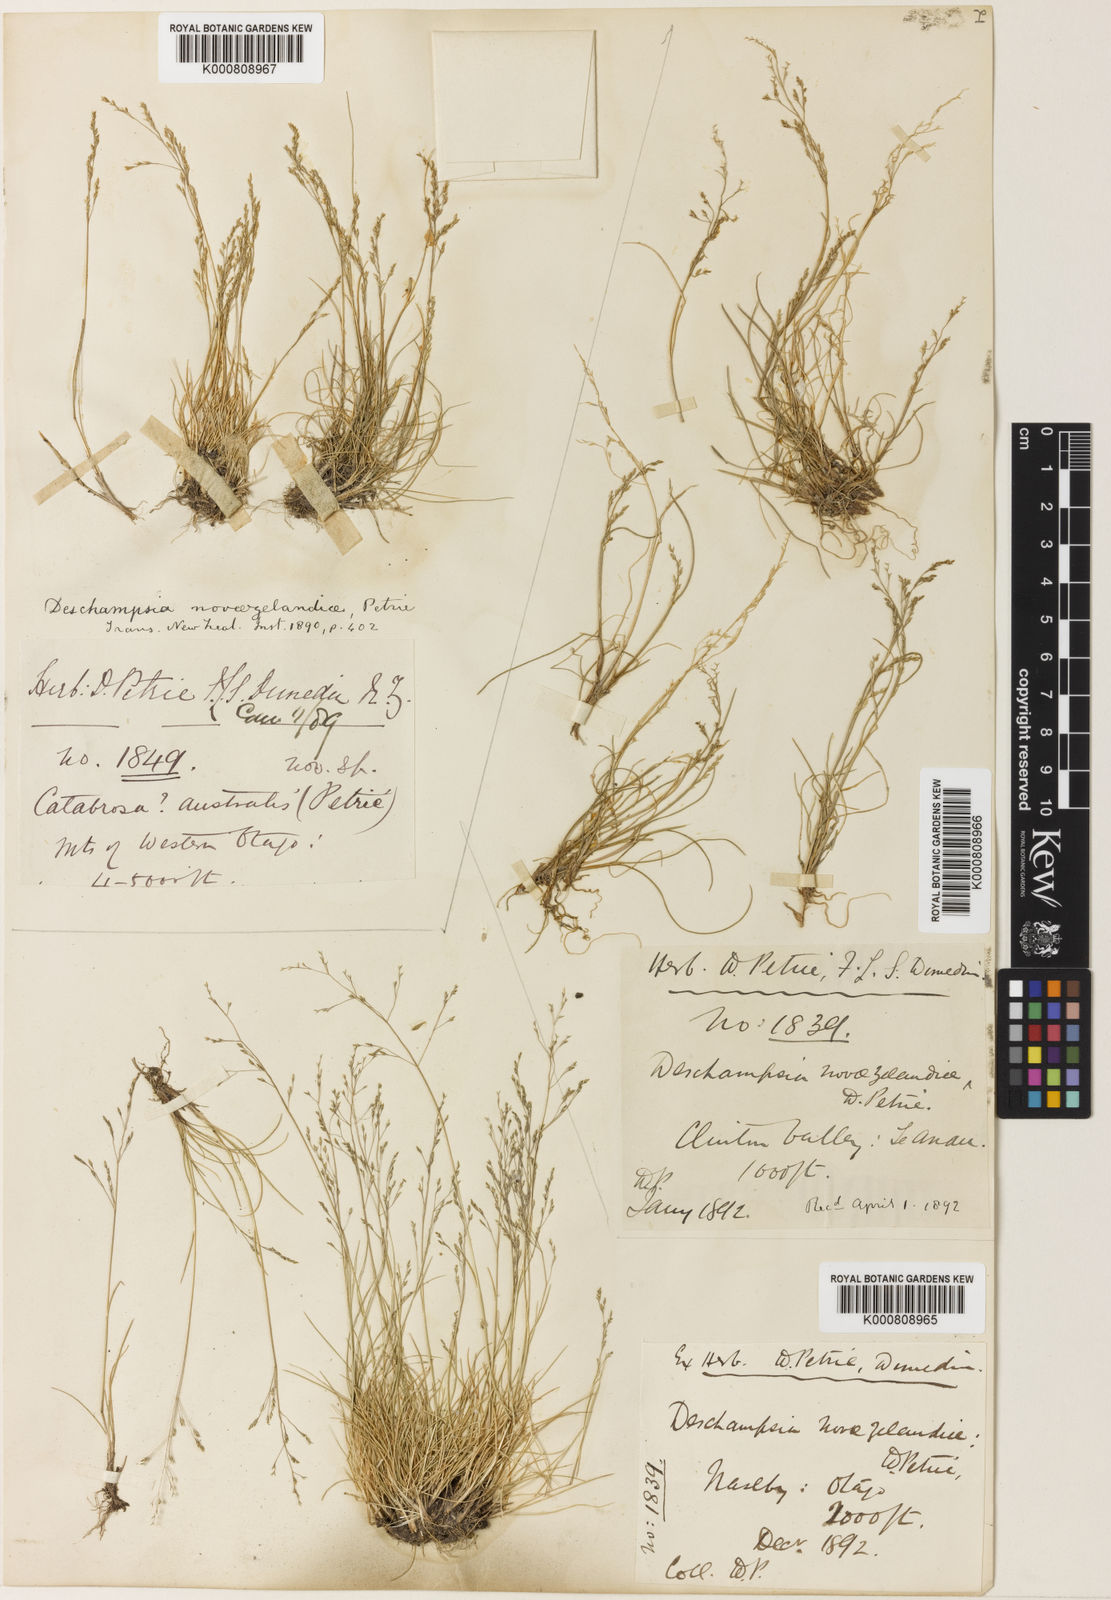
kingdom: Plantae
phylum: Tracheophyta
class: Liliopsida
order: Poales
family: Poaceae
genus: Deschampsia
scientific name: Deschampsia chapmanii
